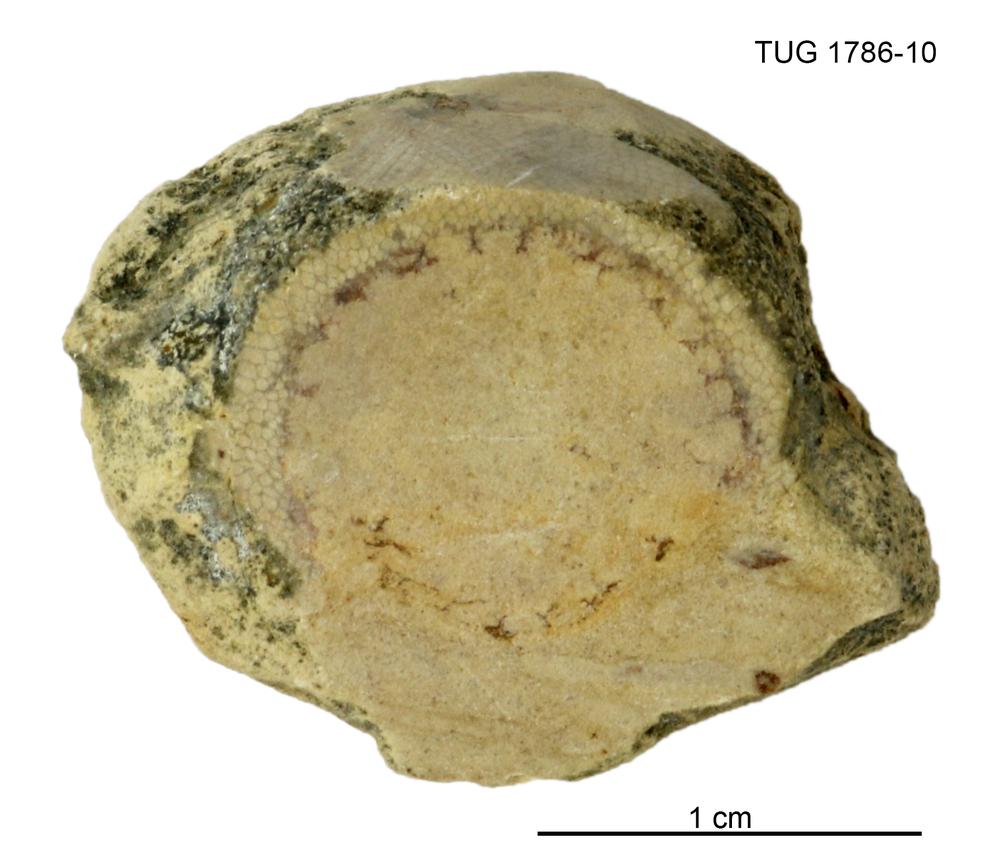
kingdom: Plantae
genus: Cyclorinus
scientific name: Cyclorinus Cyclocrinites spaskii
